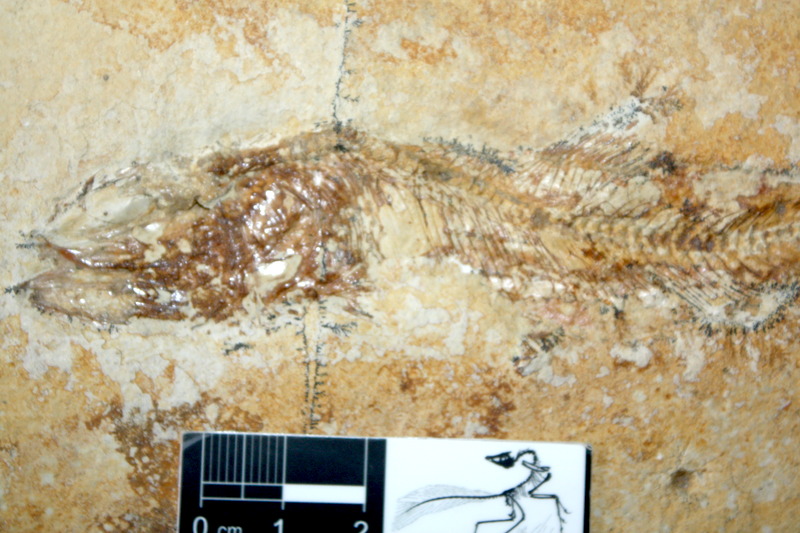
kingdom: Animalia
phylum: Chordata
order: Elopiformes
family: Anaethalionidae
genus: Anaethalion
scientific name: Anaethalion knorri
